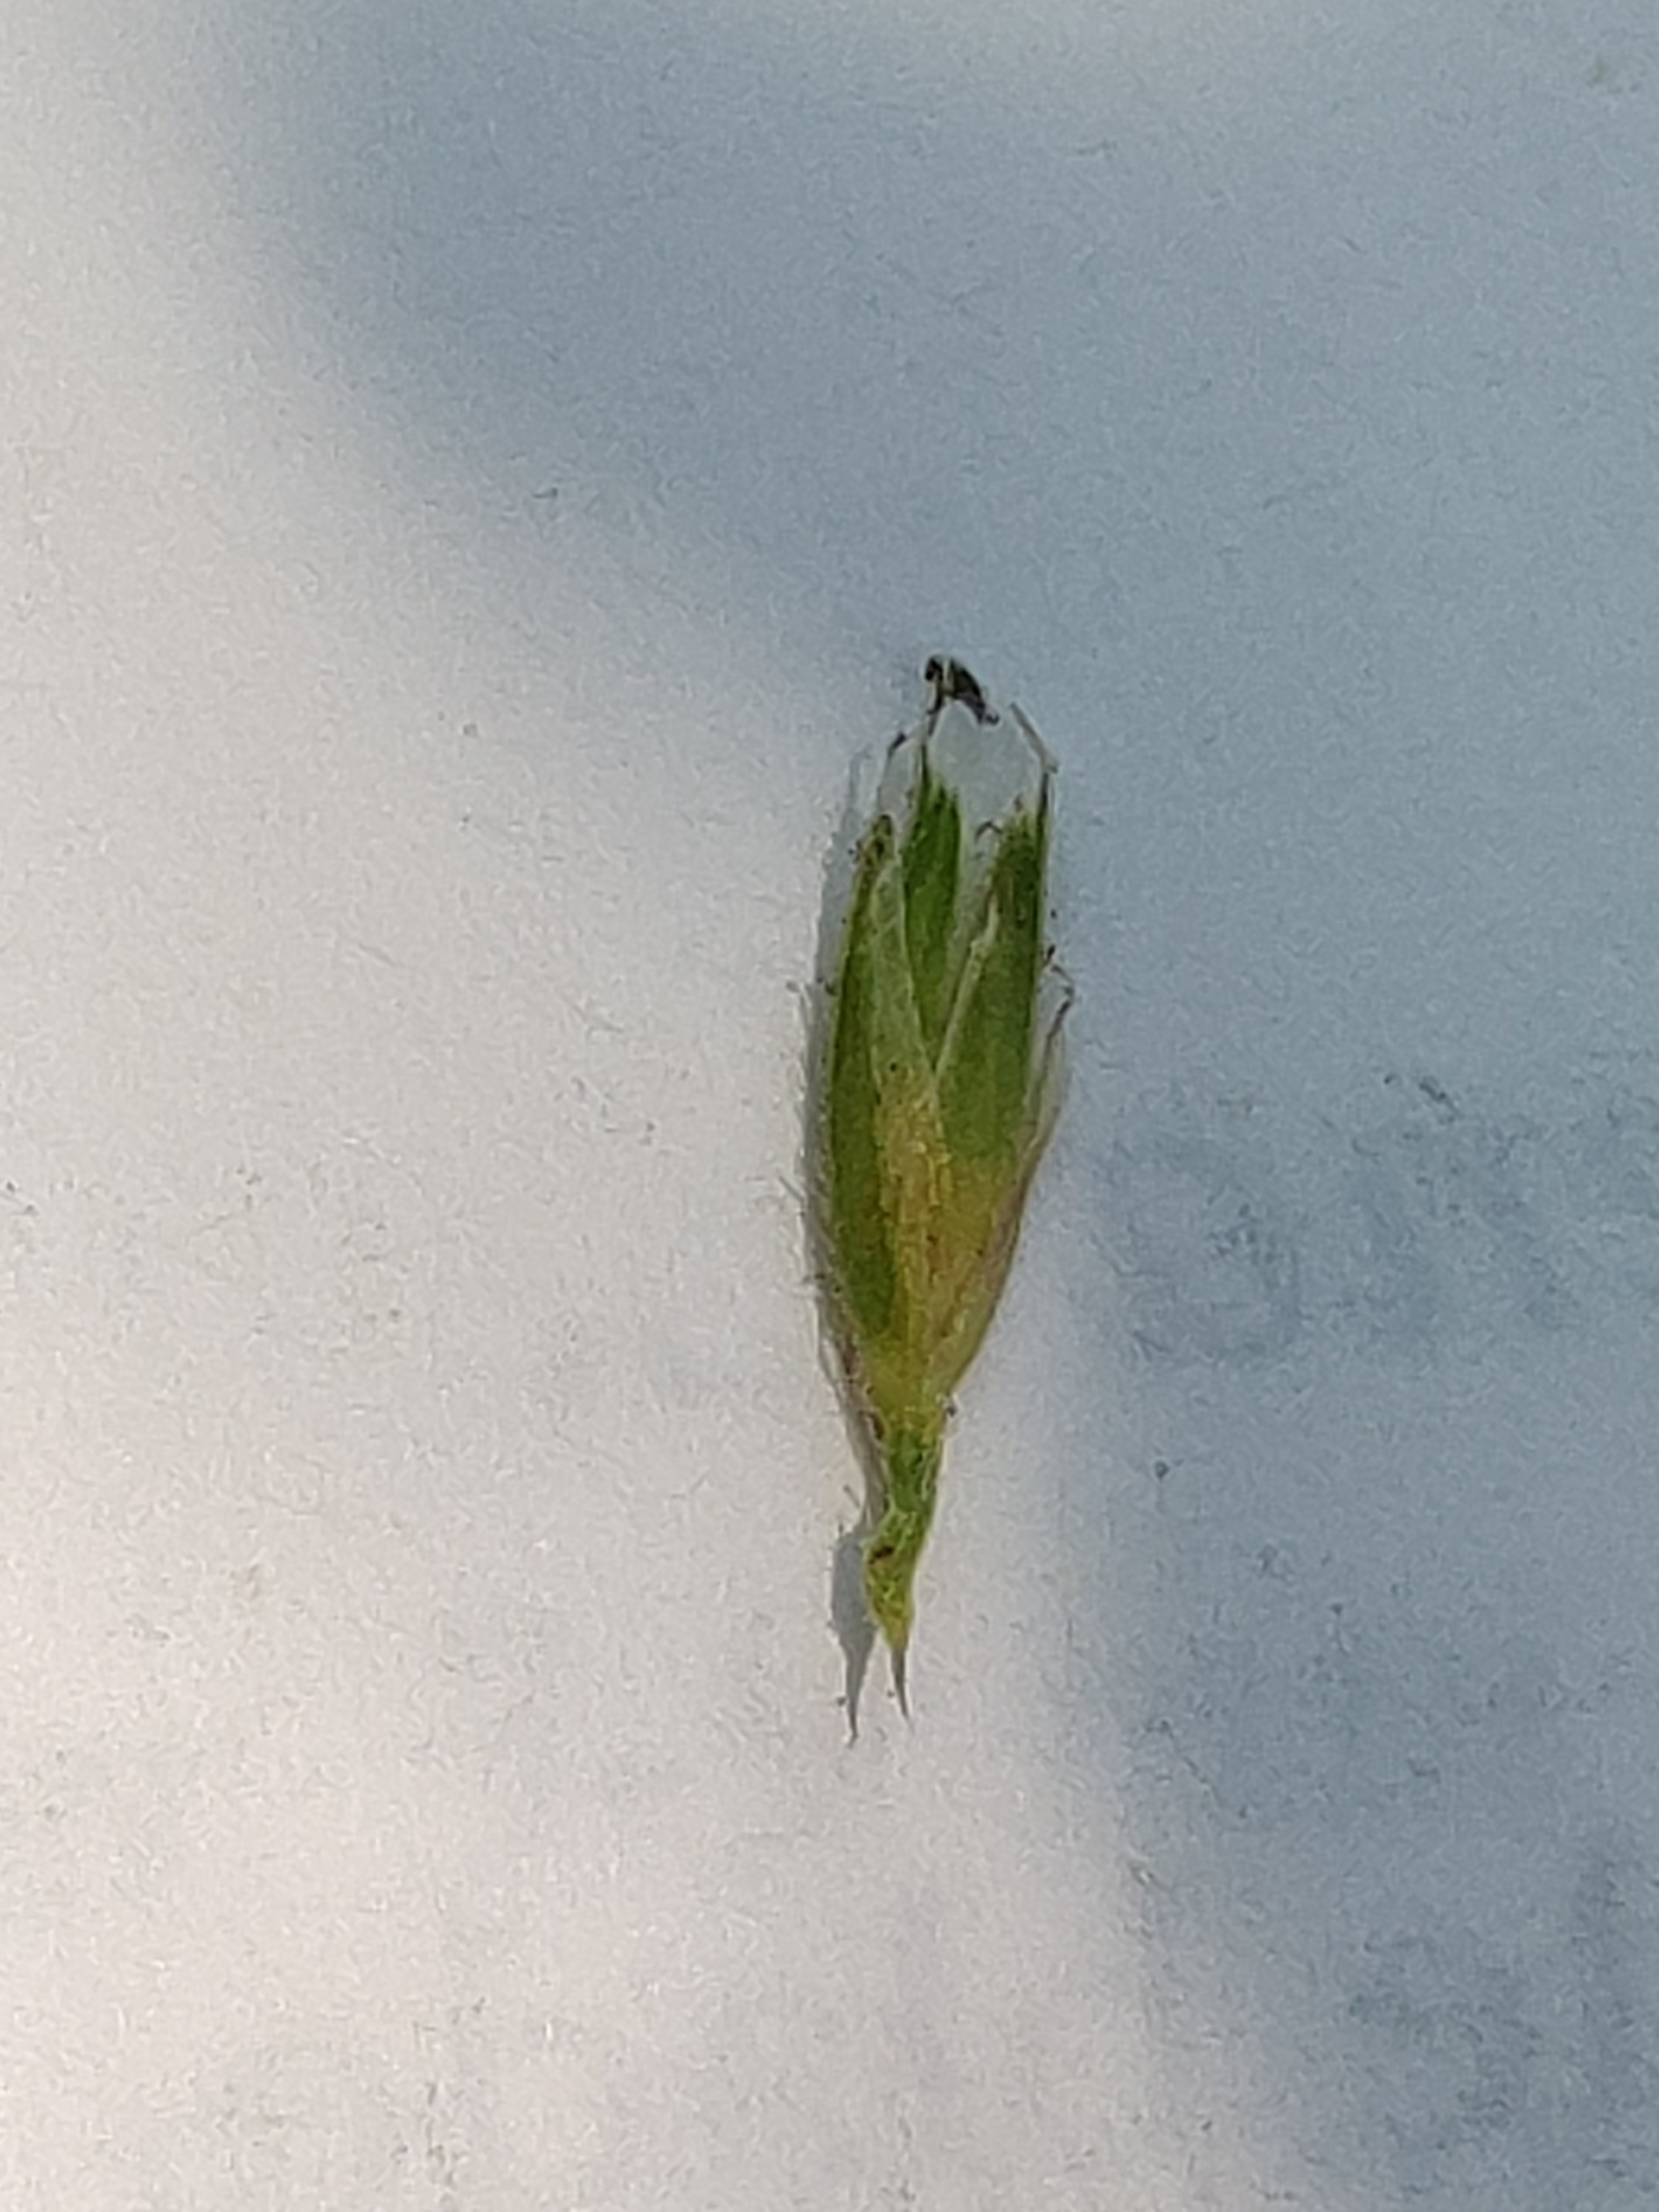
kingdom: Plantae
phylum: Tracheophyta
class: Liliopsida
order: Poales
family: Poaceae
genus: Dactylis
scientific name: Dactylis glomerata
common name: Almindelig hundegræs
